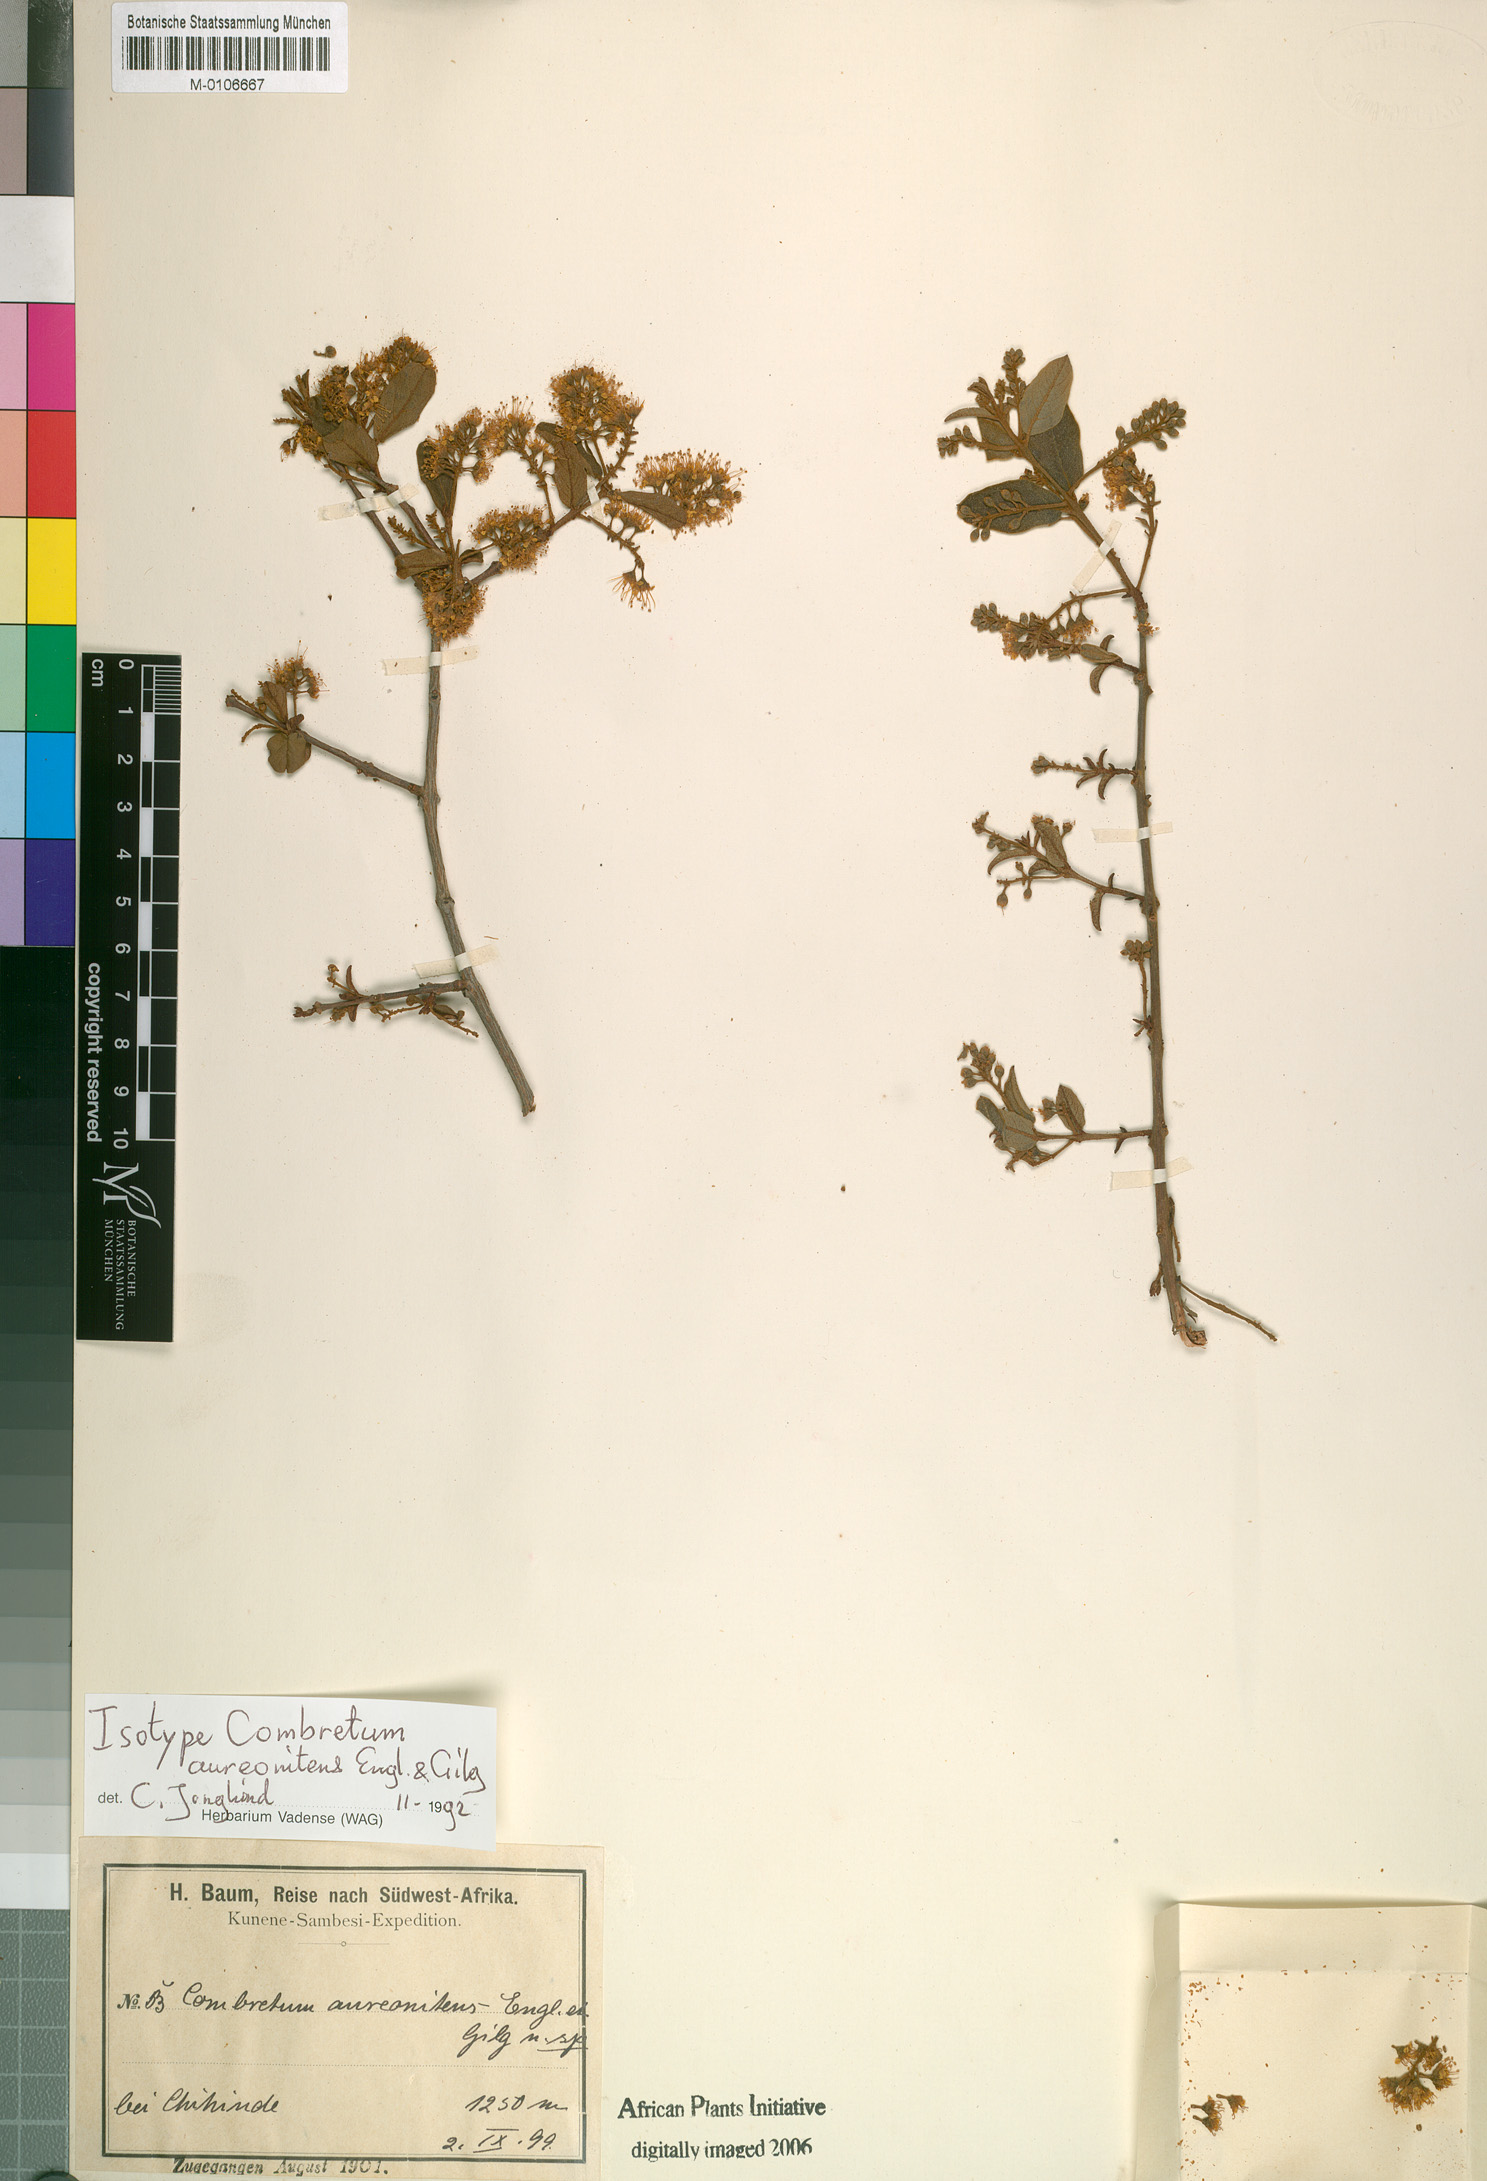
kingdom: Plantae
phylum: Tracheophyta
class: Magnoliopsida
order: Myrtales
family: Combretaceae
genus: Combretum
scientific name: Combretum aureonitens
